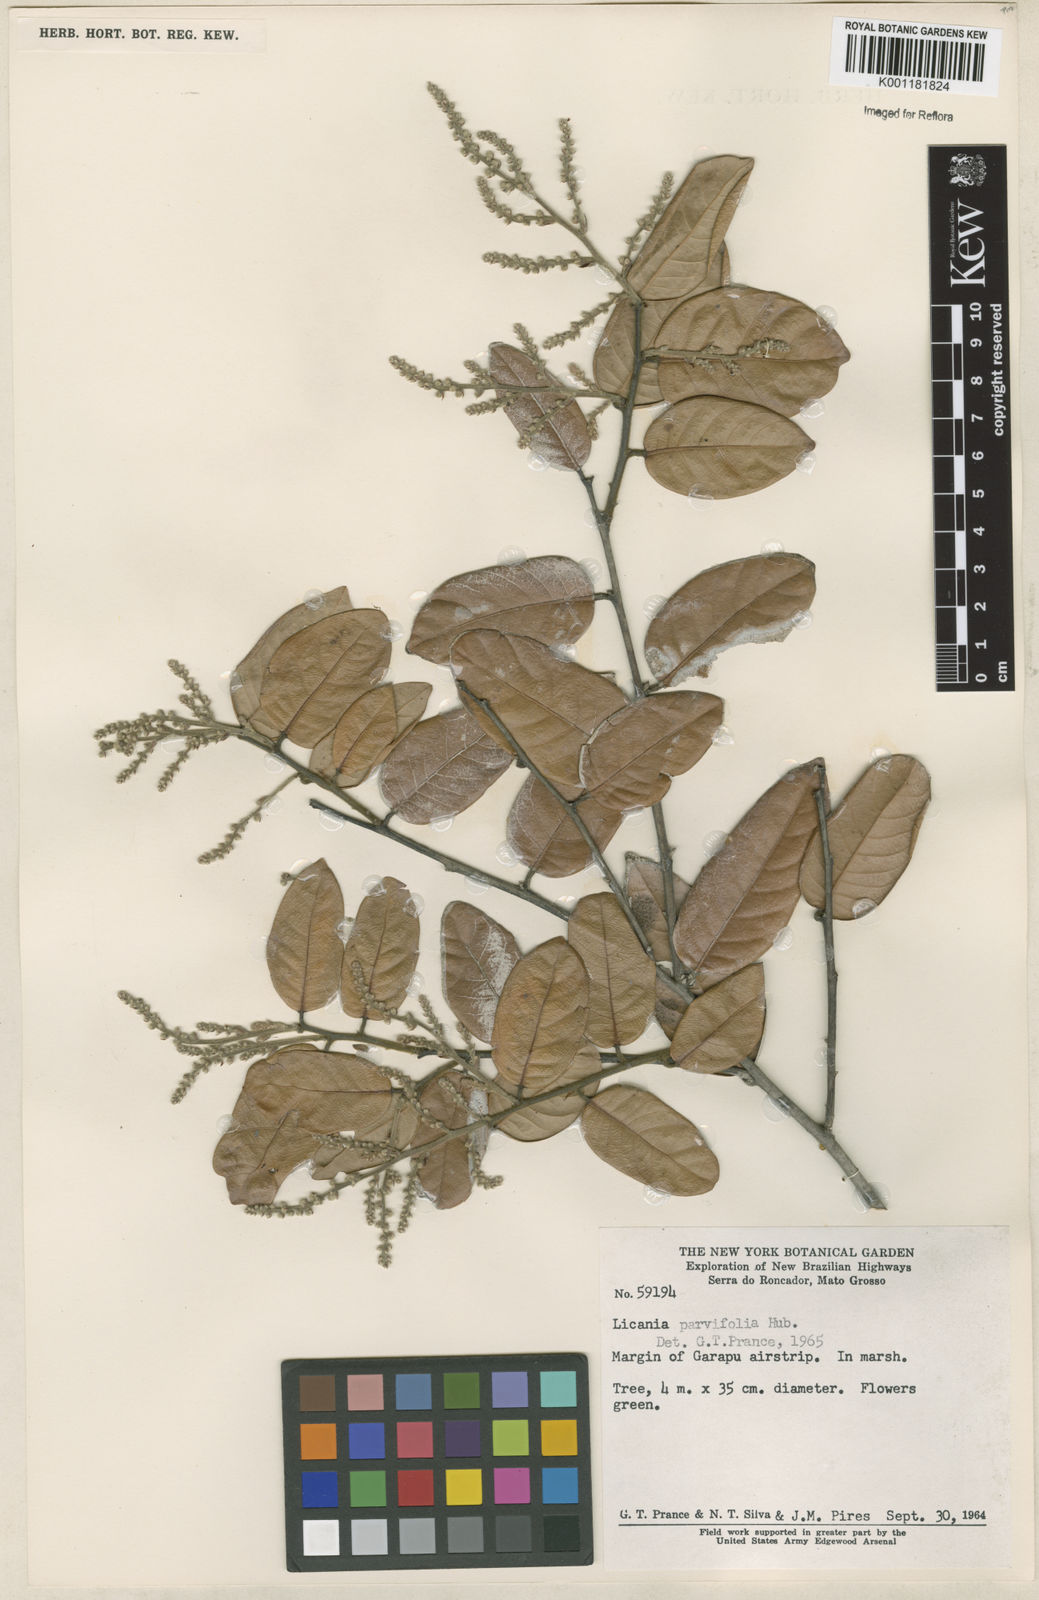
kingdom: Plantae
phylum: Tracheophyta
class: Magnoliopsida
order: Malpighiales
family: Chrysobalanaceae
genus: Licania
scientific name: Licania parvifolia
